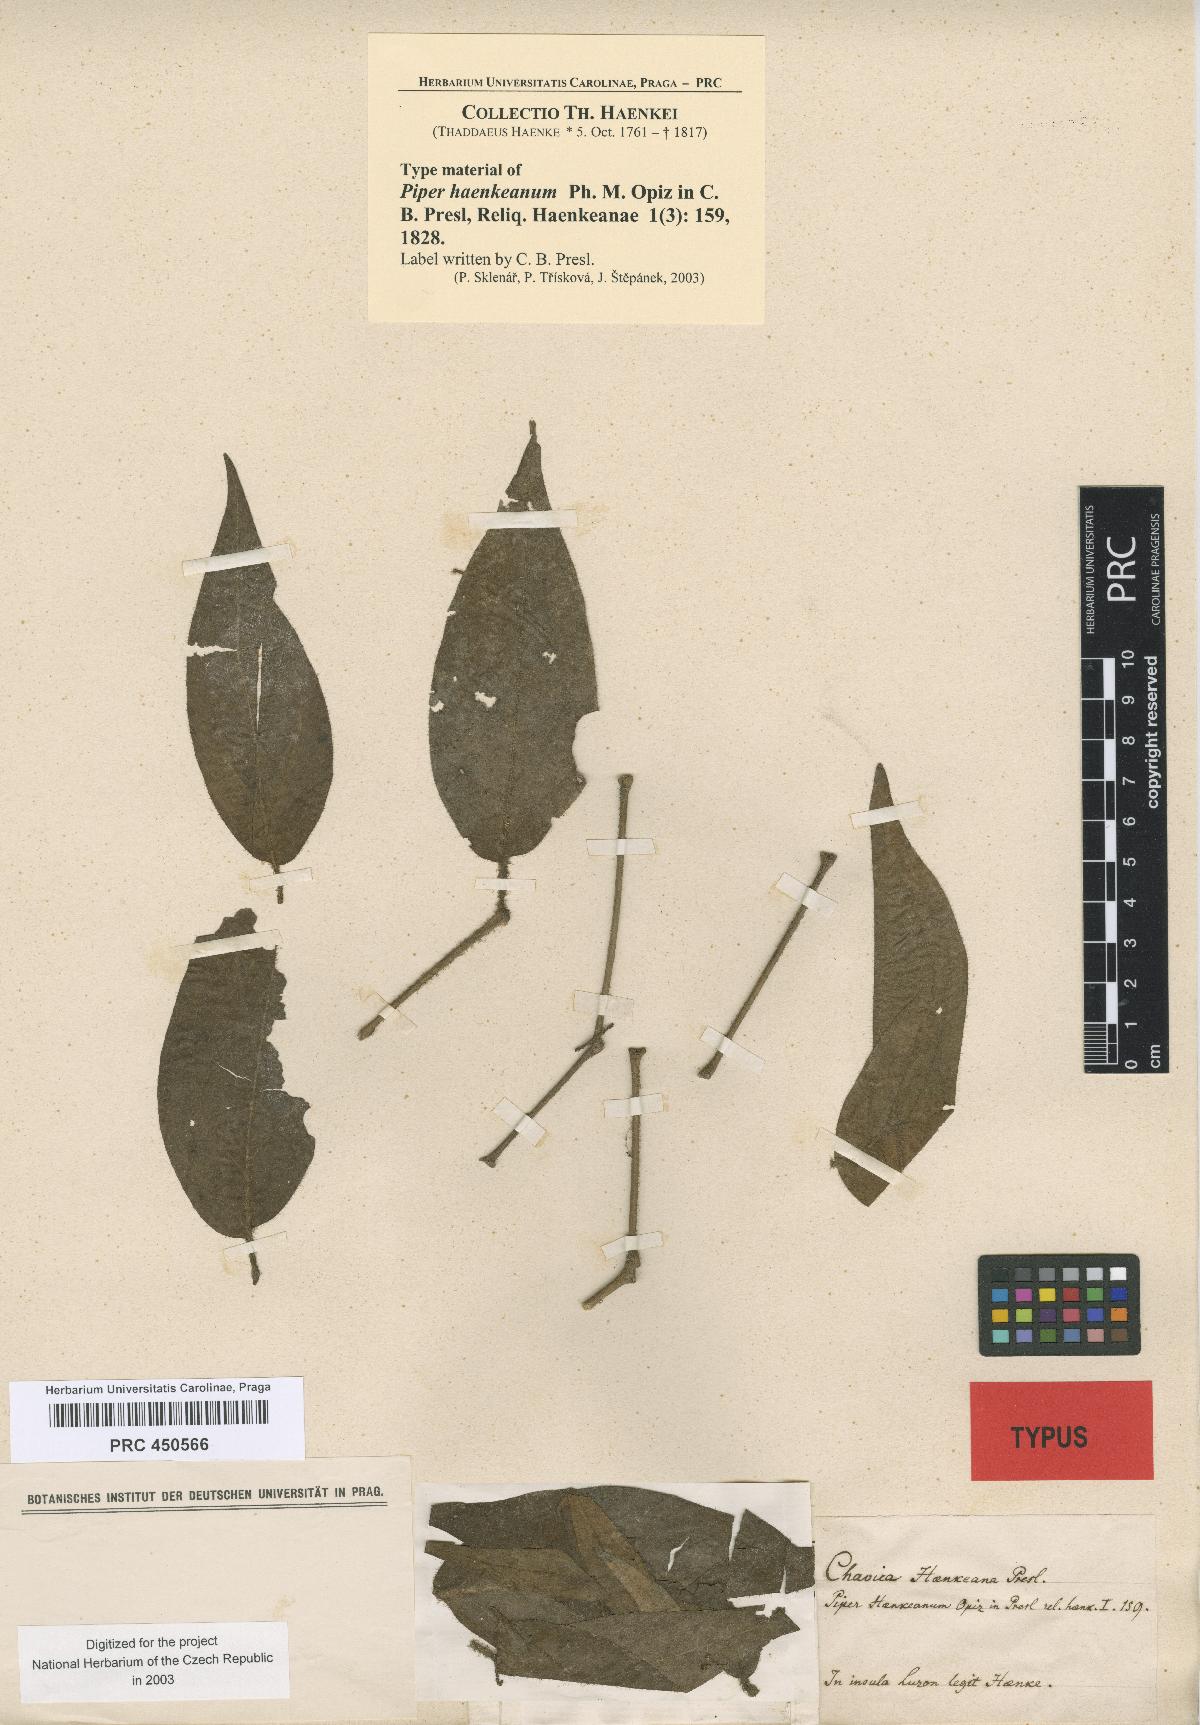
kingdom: Plantae
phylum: Tracheophyta
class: Magnoliopsida
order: Piperales
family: Piperaceae
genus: Piper
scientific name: Piper lanatum
